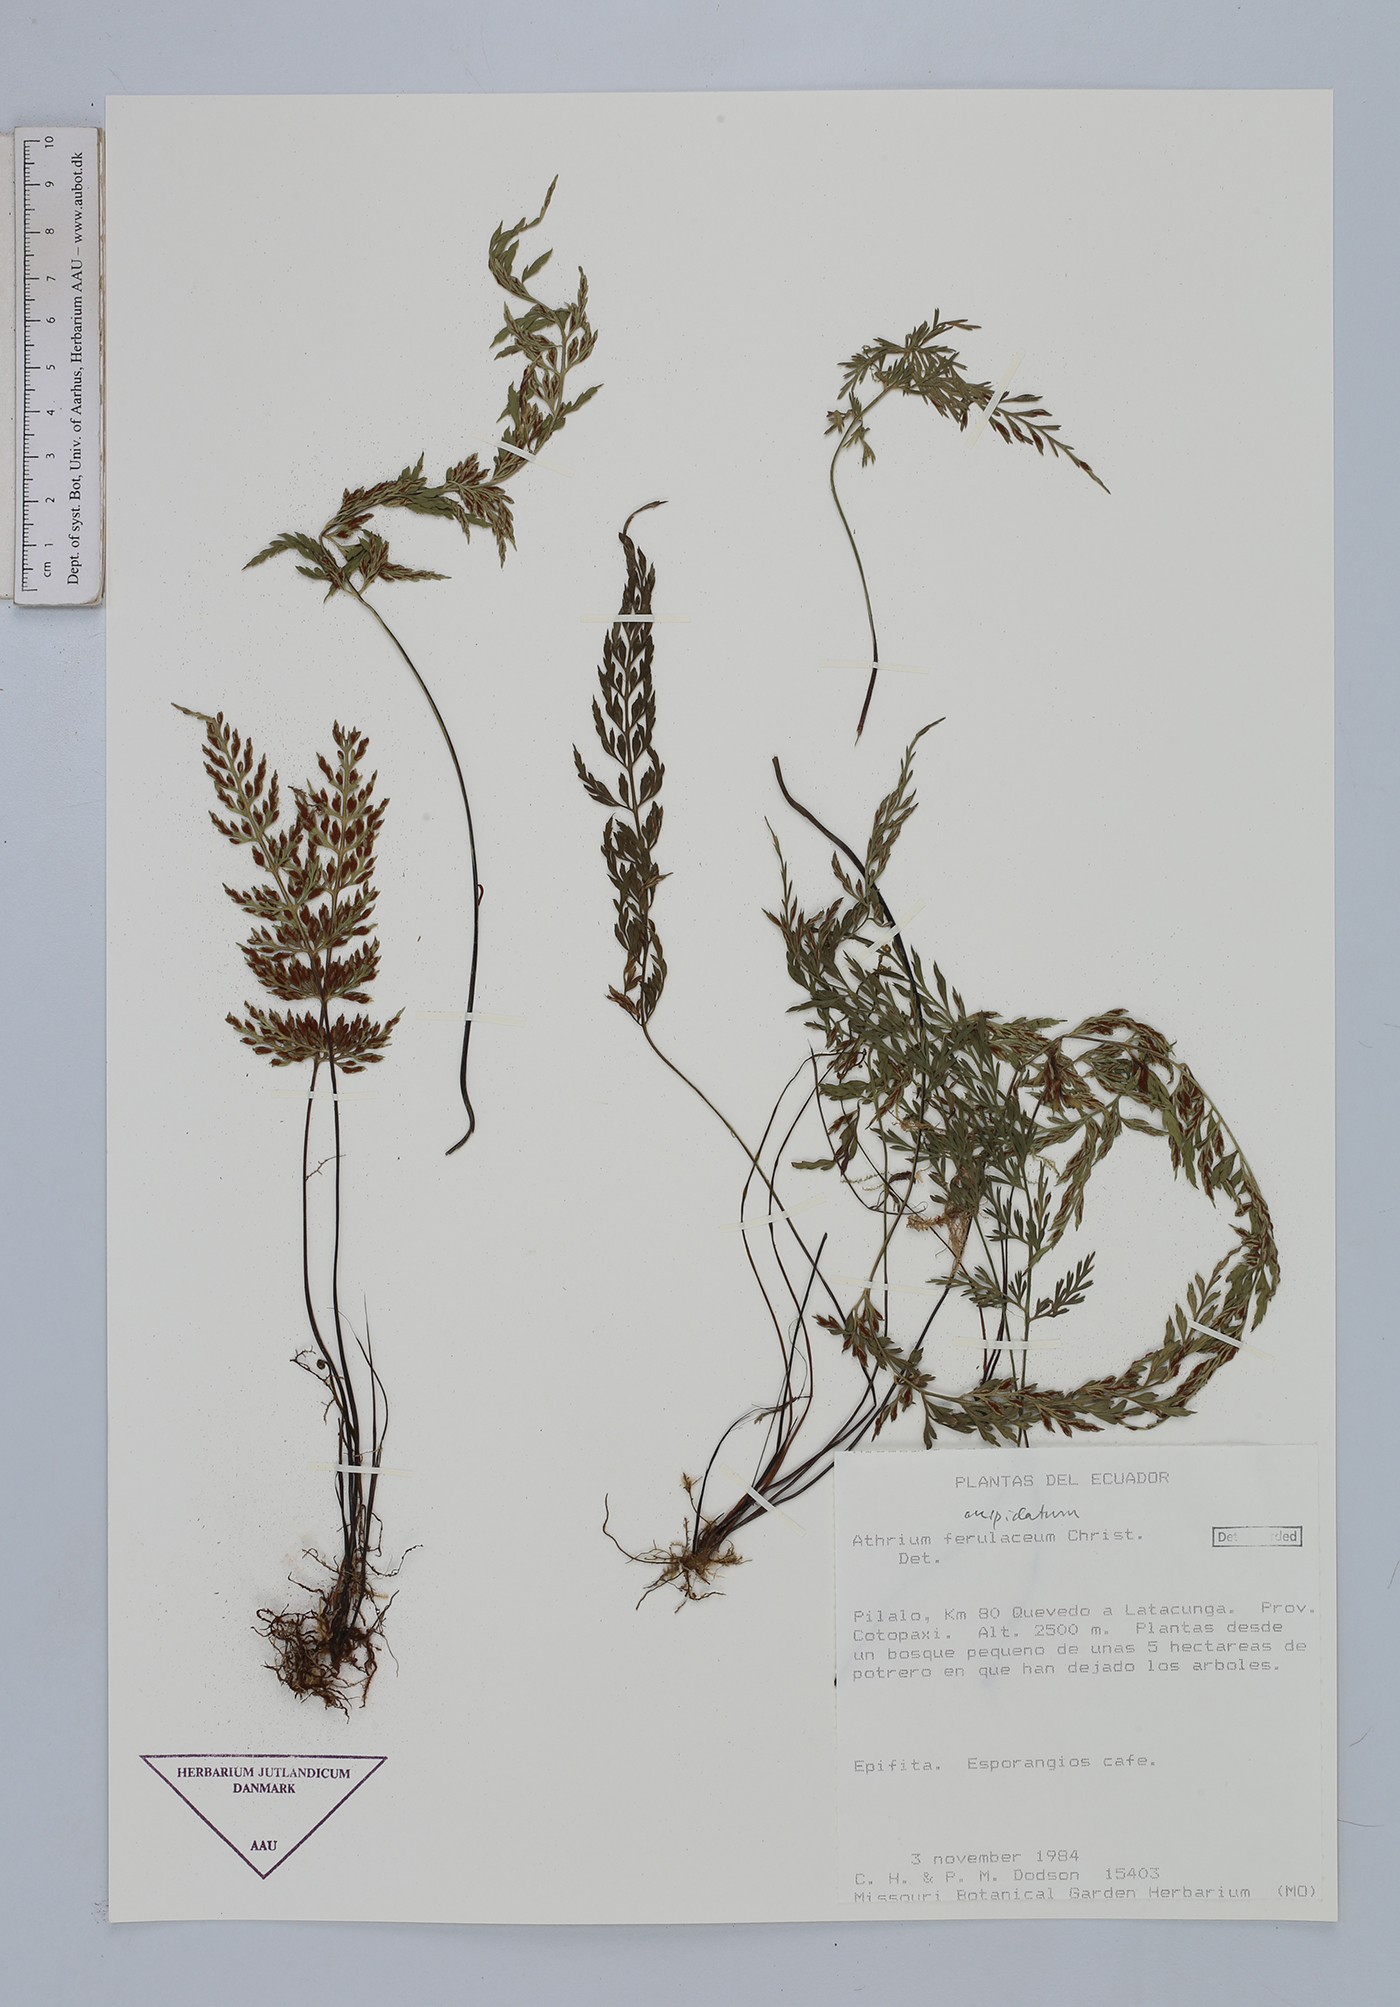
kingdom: Plantae
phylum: Tracheophyta
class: Polypodiopsida
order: Polypodiales
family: Aspleniaceae
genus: Asplenium
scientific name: Asplenium fragrans
